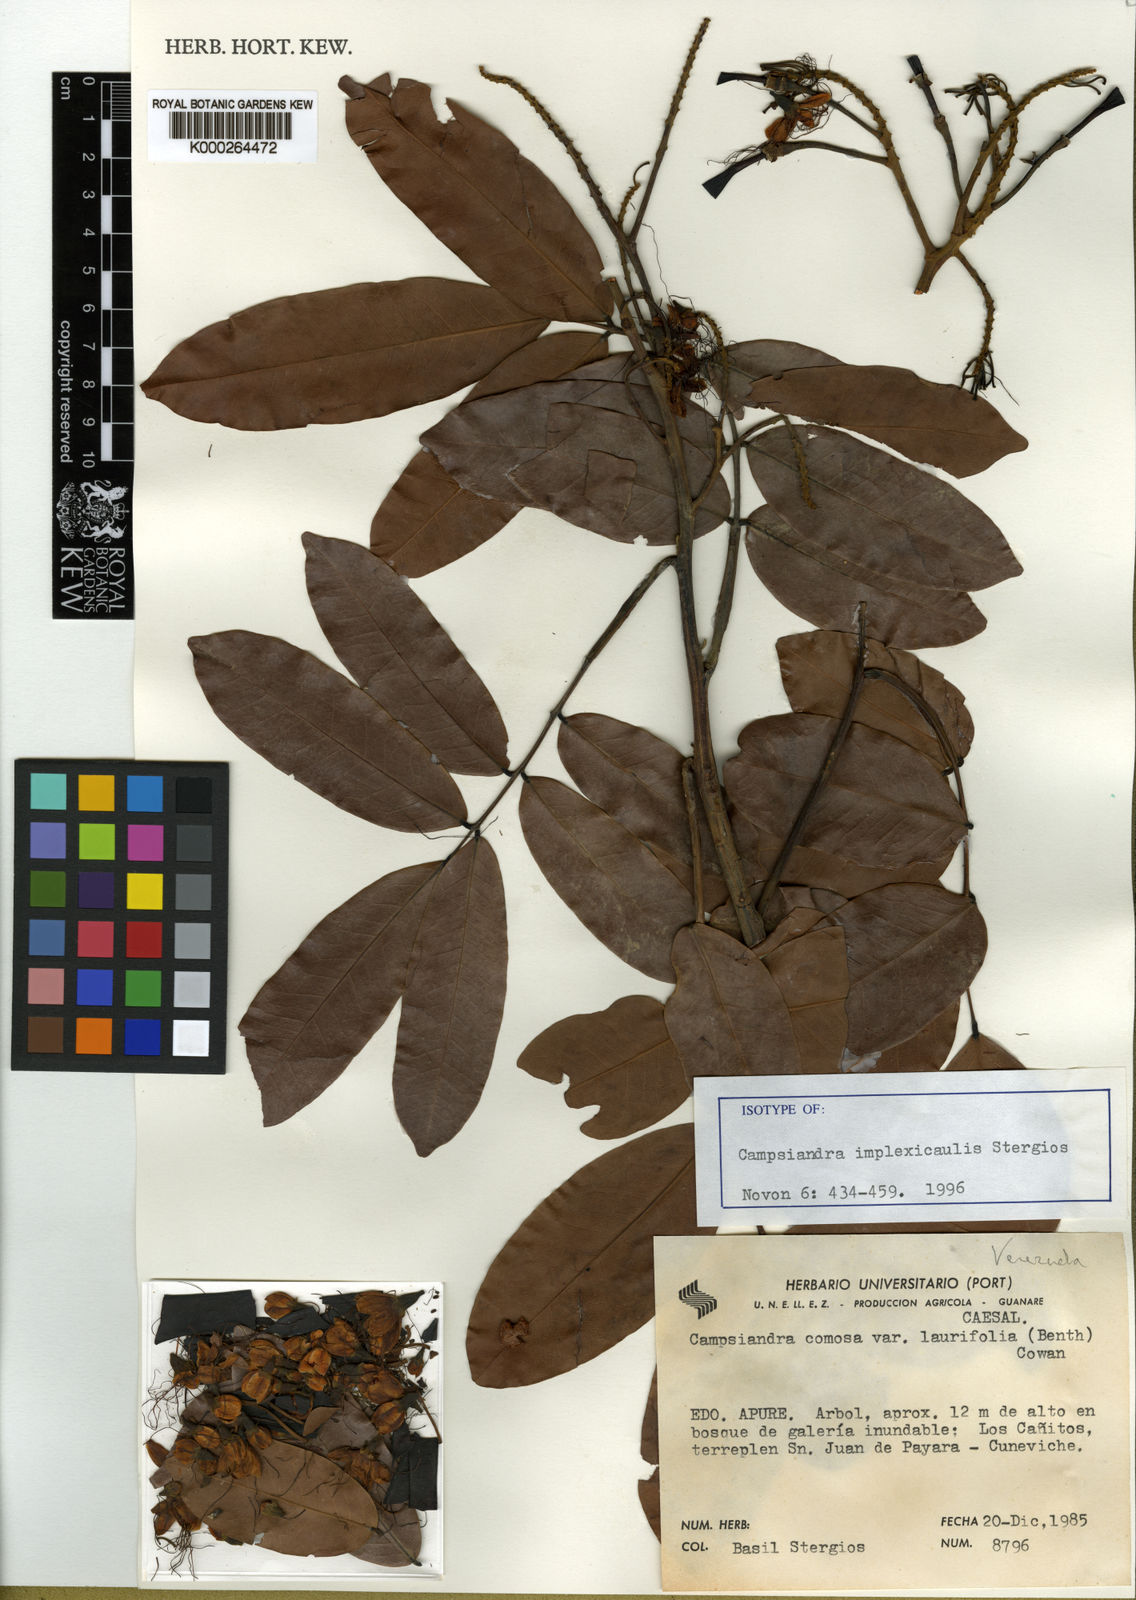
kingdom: Plantae
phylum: Tracheophyta
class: Magnoliopsida
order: Fabales
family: Fabaceae
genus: Campsiandra
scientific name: Campsiandra implexicaulis
